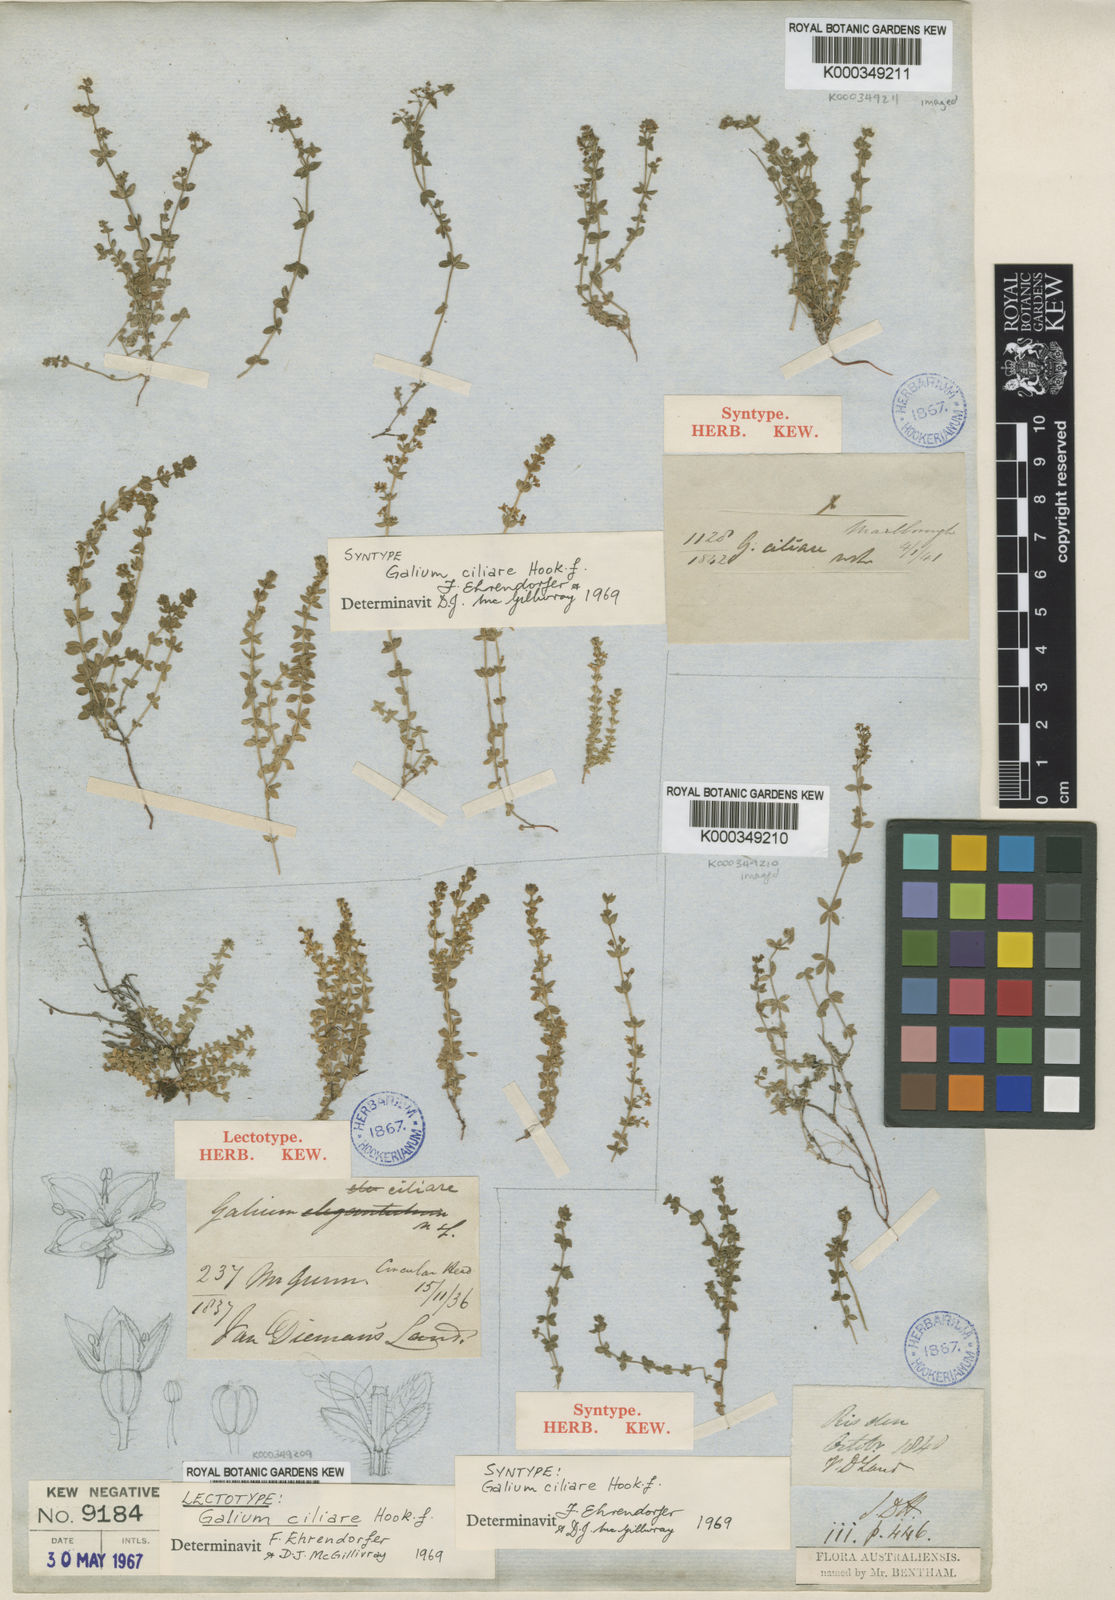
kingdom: Plantae
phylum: Tracheophyta
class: Magnoliopsida
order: Gentianales
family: Rubiaceae
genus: Galium
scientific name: Galium ciliare
